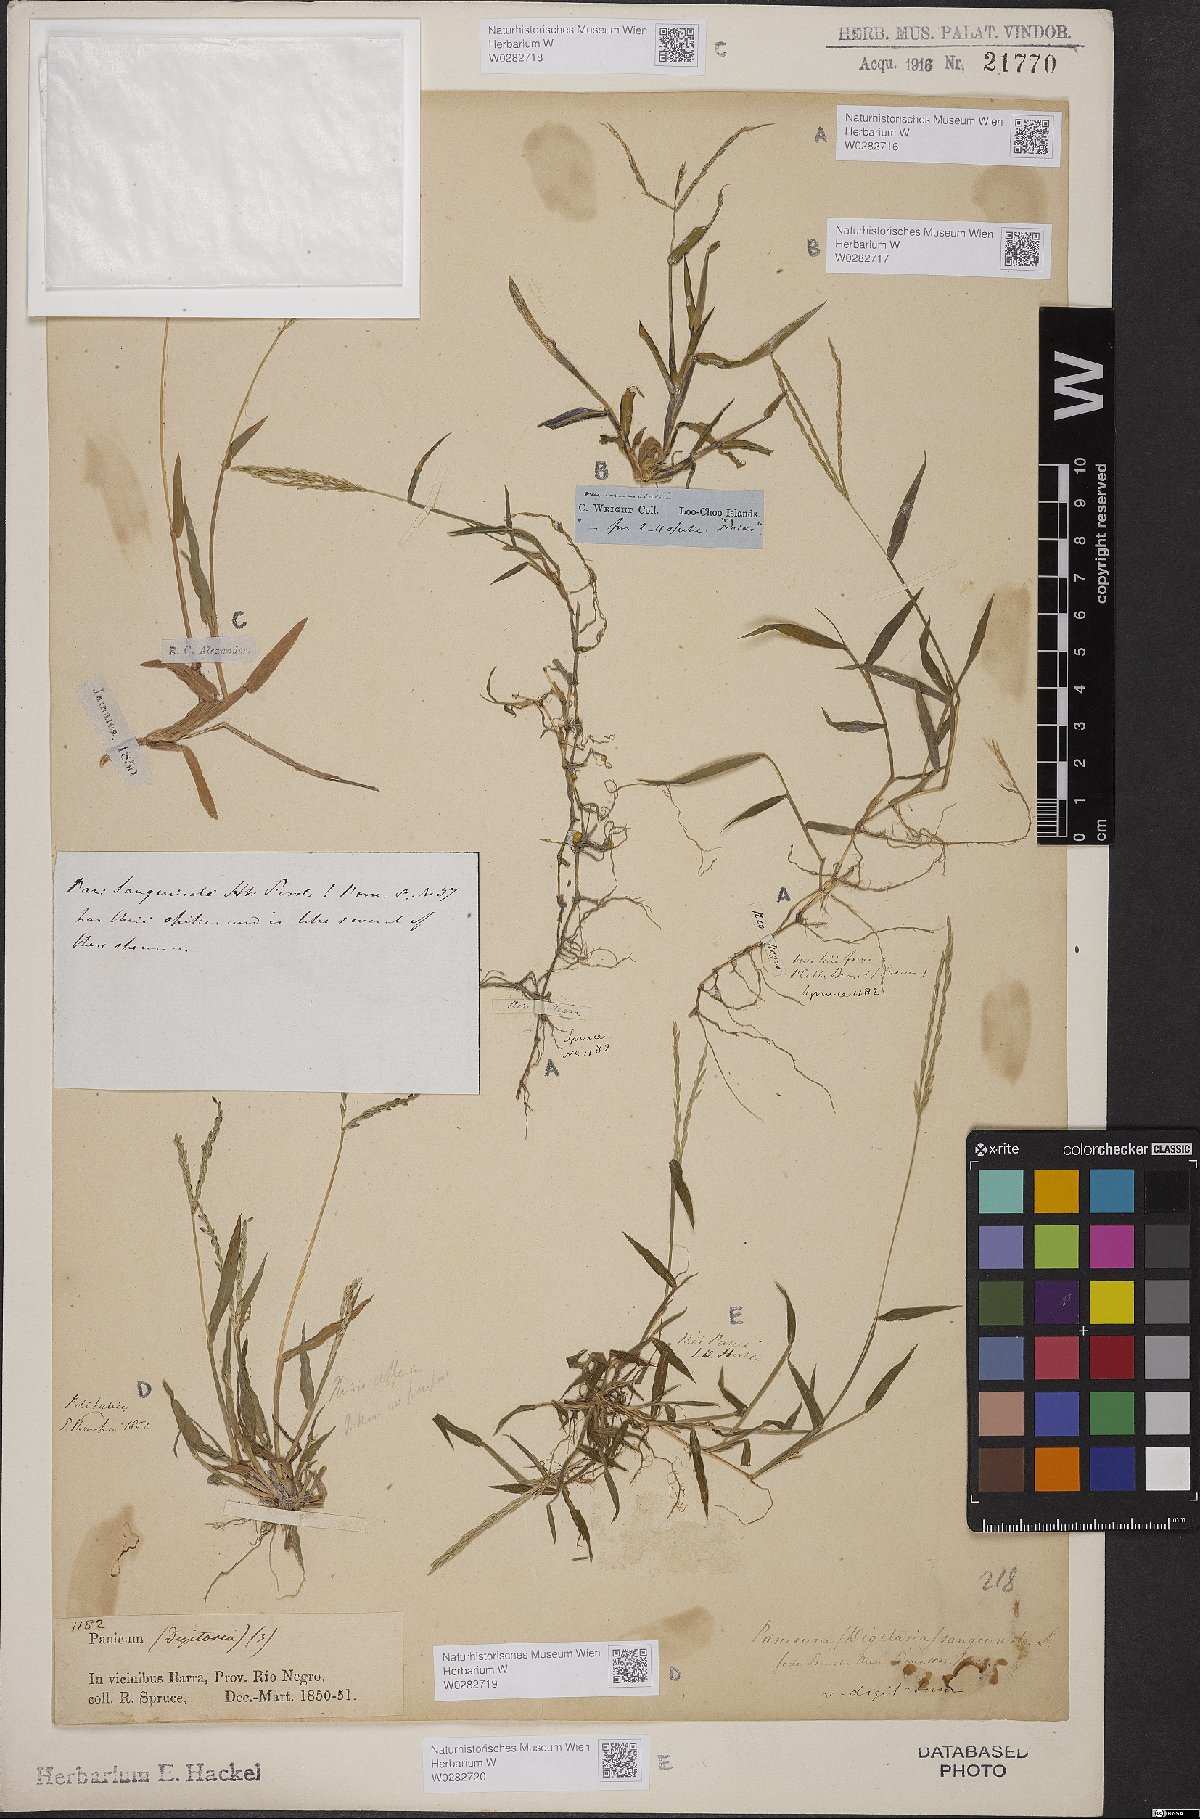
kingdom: Plantae
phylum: Tracheophyta
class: Liliopsida
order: Poales
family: Poaceae
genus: Digitaria
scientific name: Digitaria sanguinalis
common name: Hairy crabgrass
